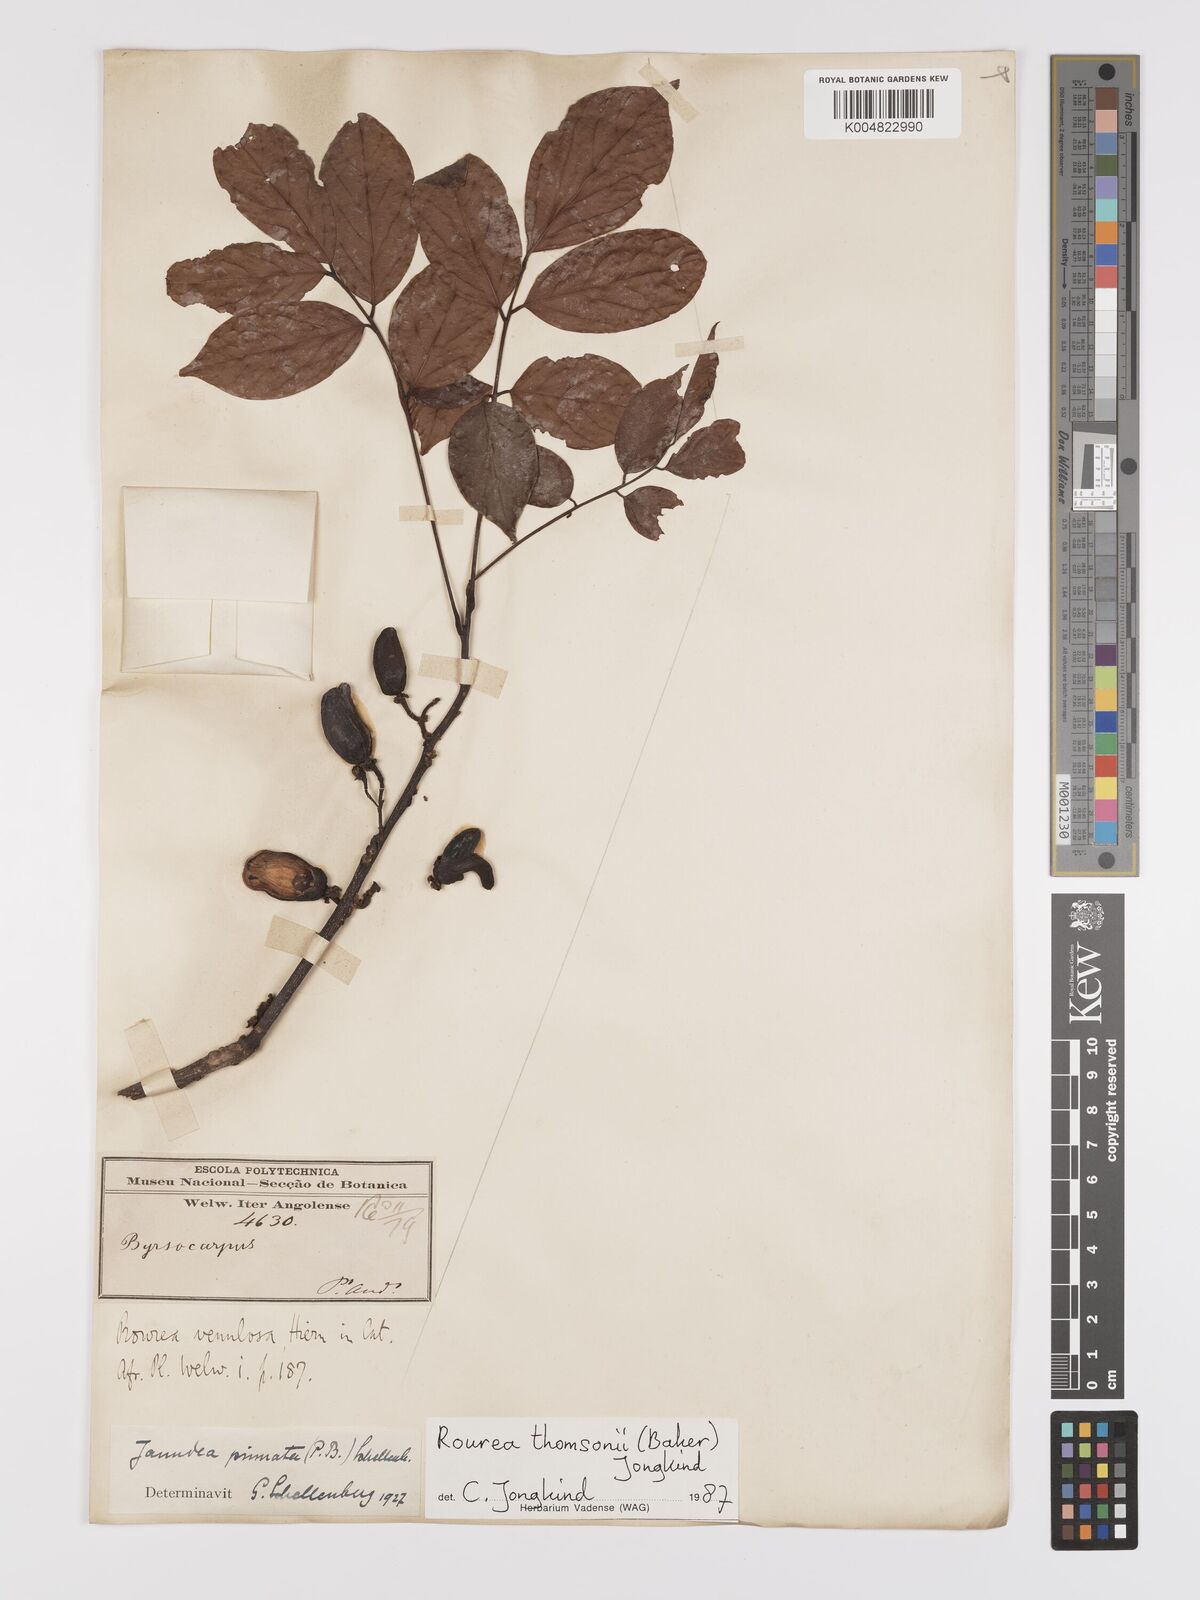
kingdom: Plantae
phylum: Tracheophyta
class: Magnoliopsida
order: Oxalidales
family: Connaraceae
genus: Rourea
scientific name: Rourea pinnata
